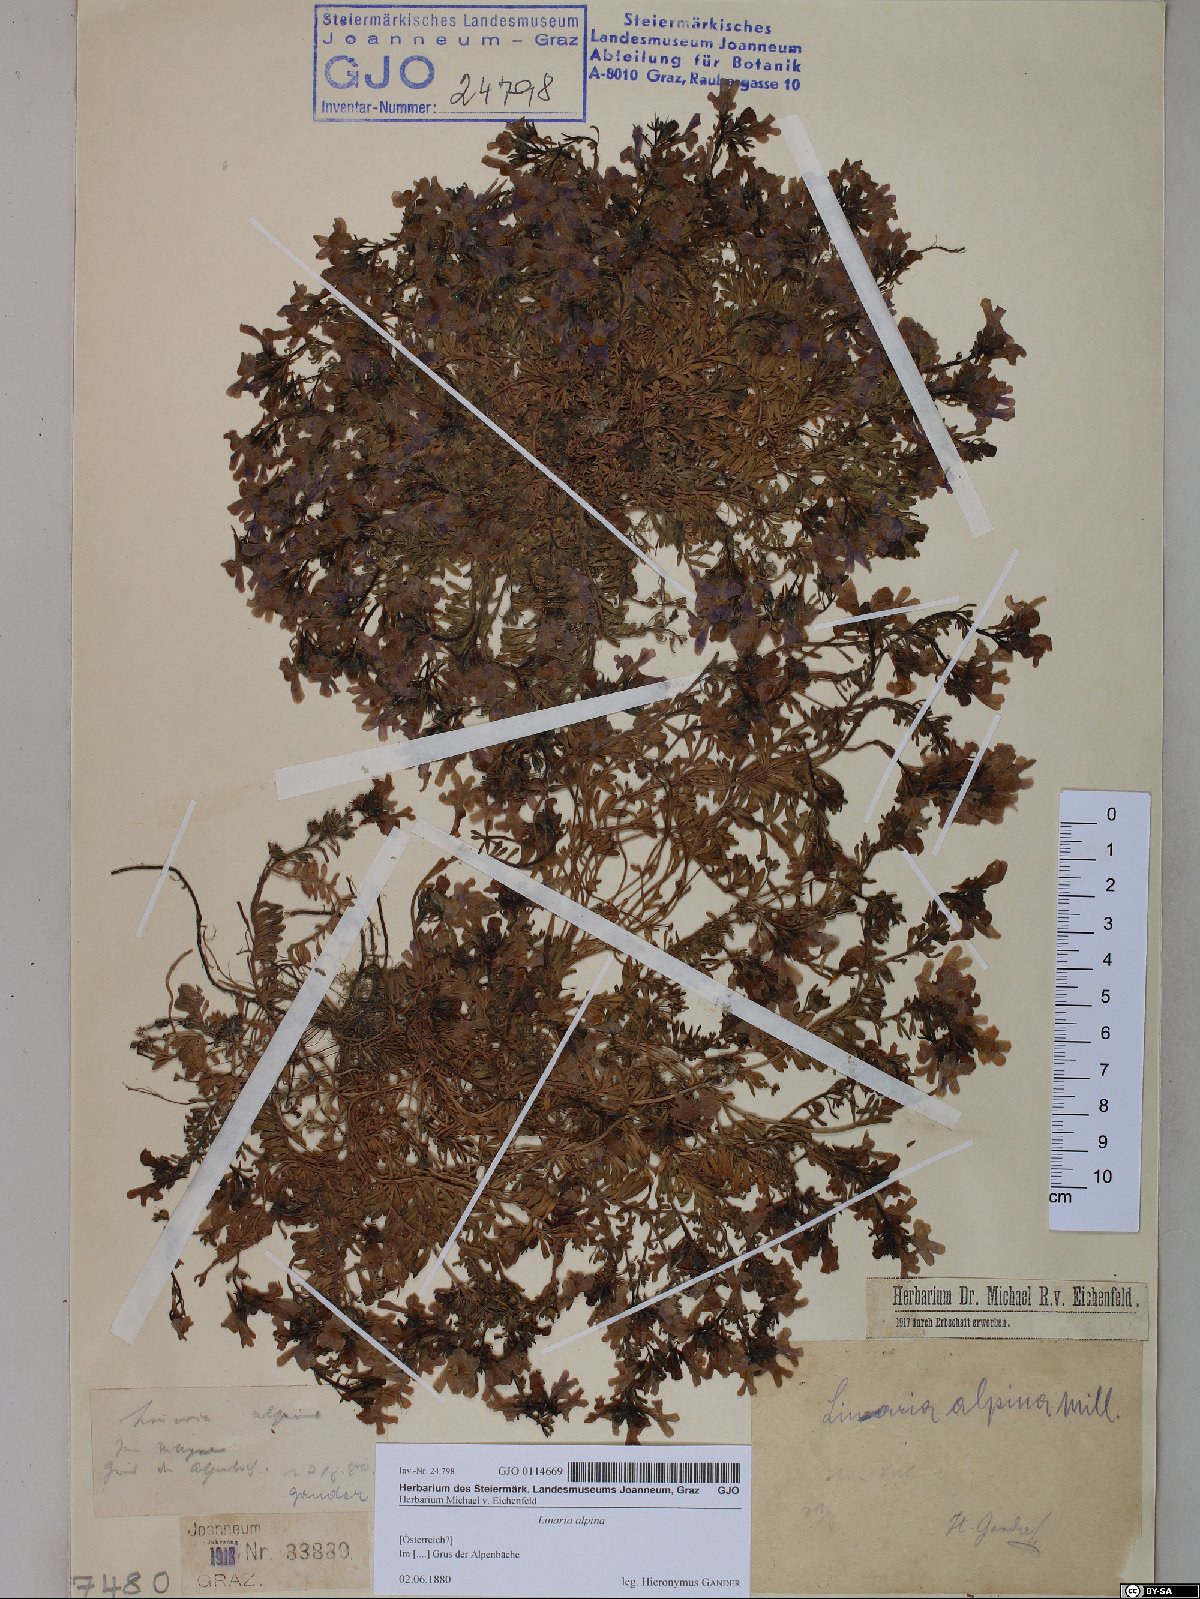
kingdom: Plantae
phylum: Tracheophyta
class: Magnoliopsida
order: Lamiales
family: Plantaginaceae
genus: Linaria
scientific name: Linaria alpina
